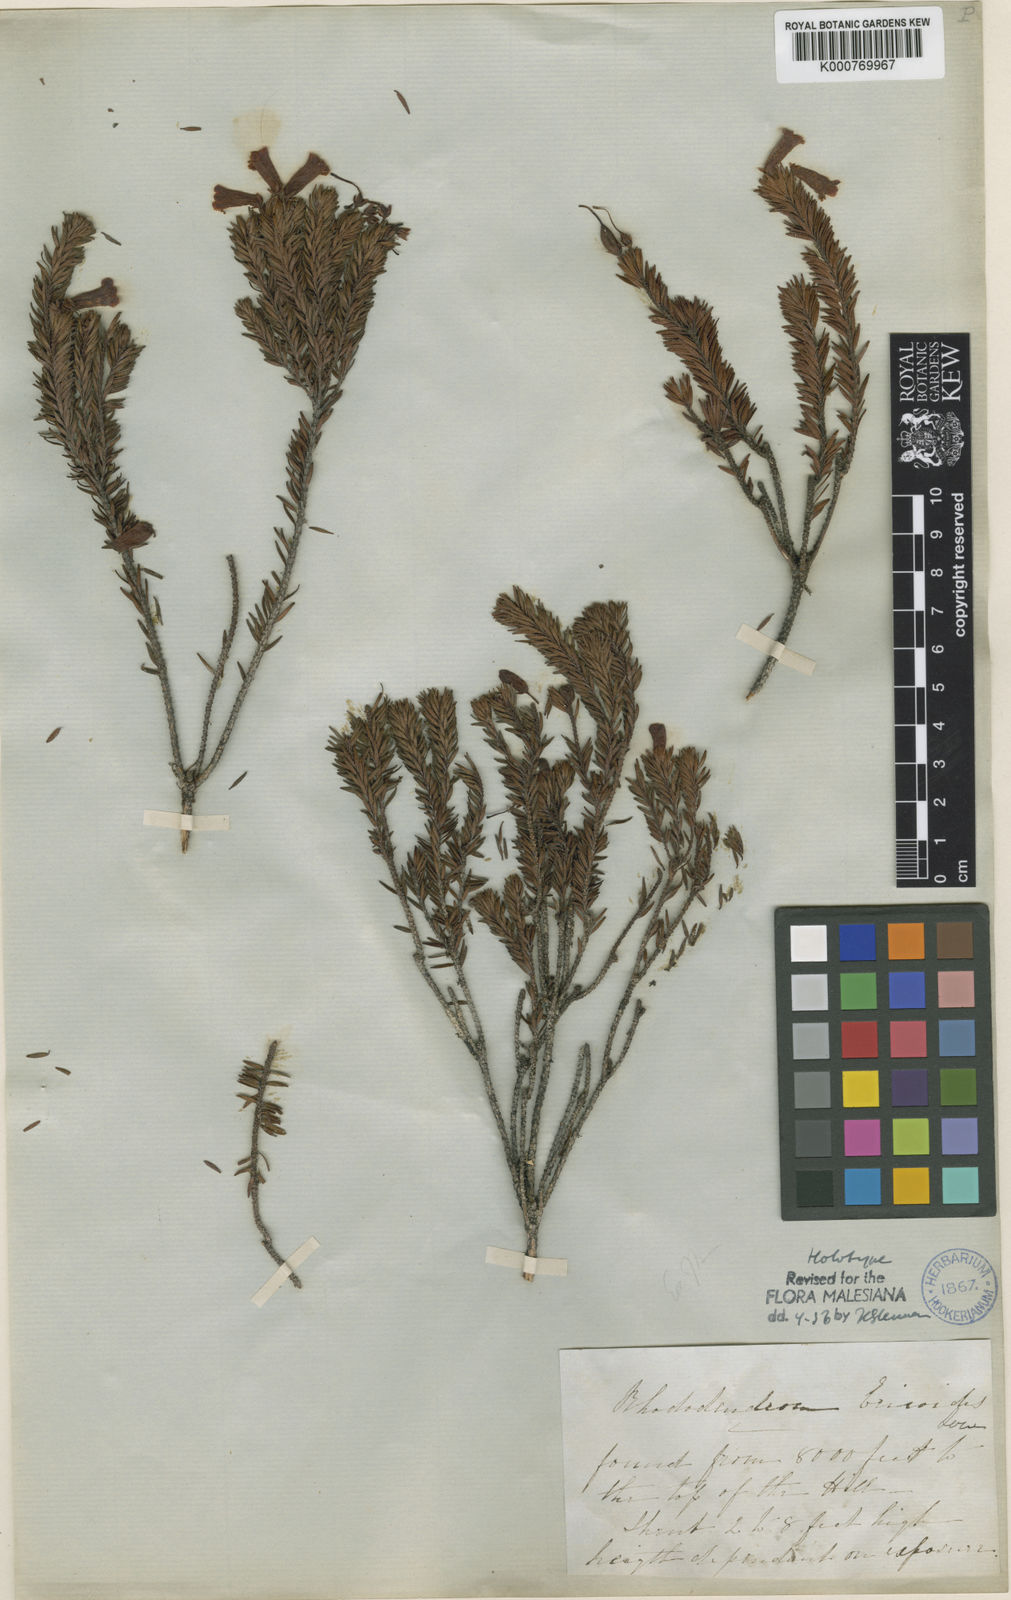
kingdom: Plantae
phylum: Tracheophyta
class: Magnoliopsida
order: Ericales
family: Ericaceae
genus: Rhododendron
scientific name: Rhododendron ericoides
